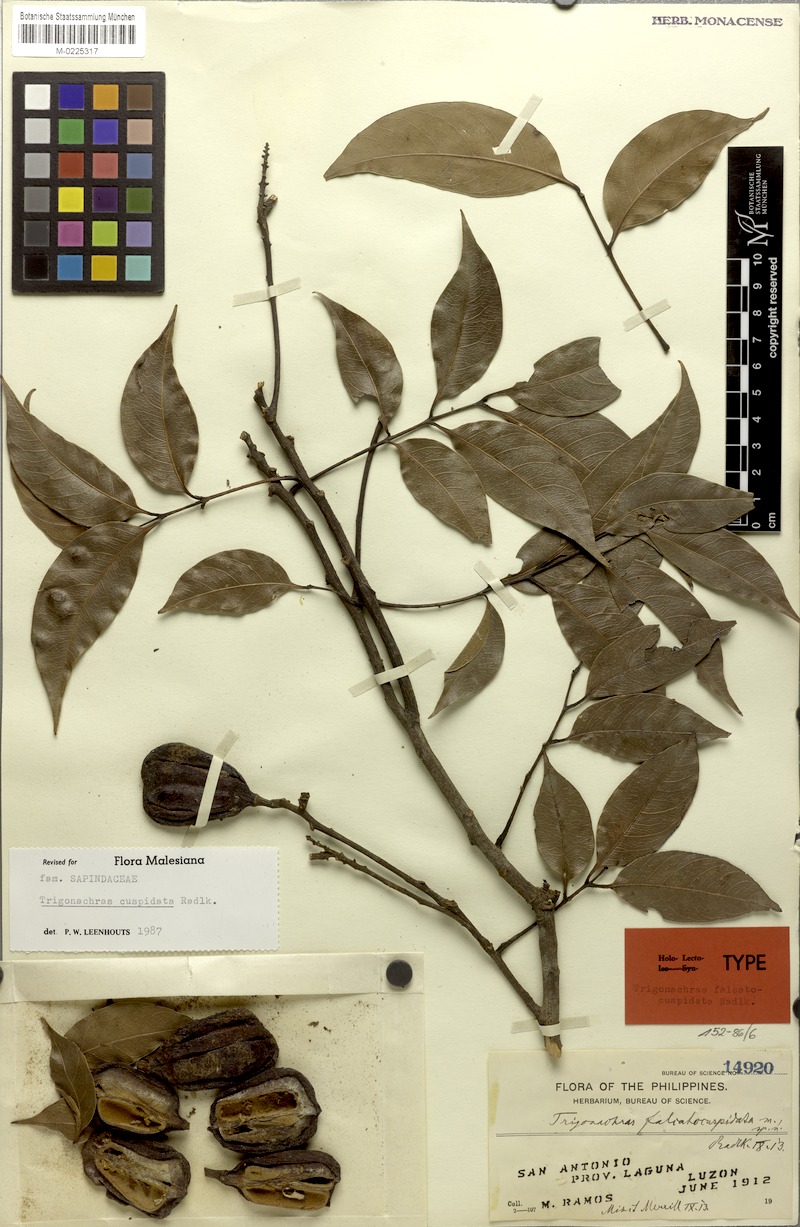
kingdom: Plantae
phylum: Tracheophyta
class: Magnoliopsida
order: Sapindales
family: Sapindaceae
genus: Trigonachras
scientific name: Trigonachras cuspidata
